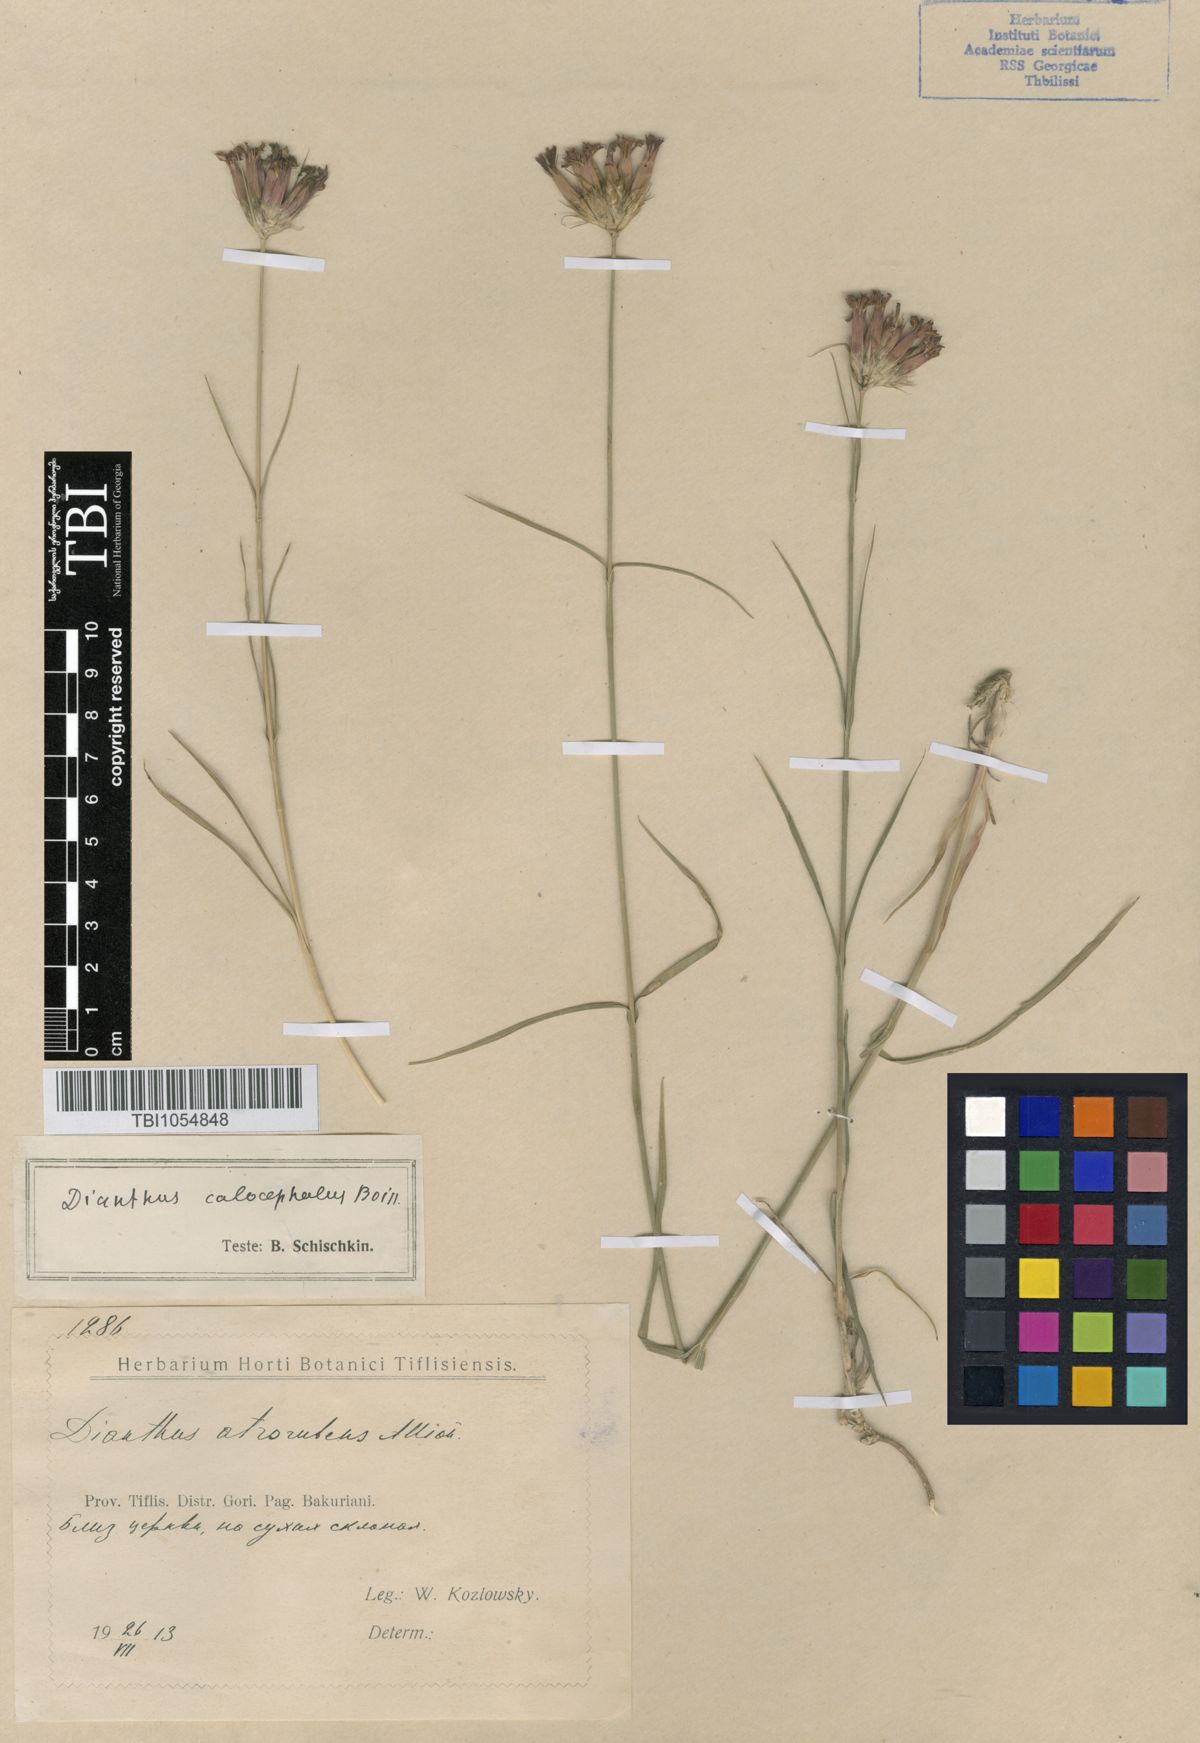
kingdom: Plantae
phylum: Tracheophyta
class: Magnoliopsida
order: Caryophyllales
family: Caryophyllaceae
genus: Dianthus
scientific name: Dianthus cruentus
